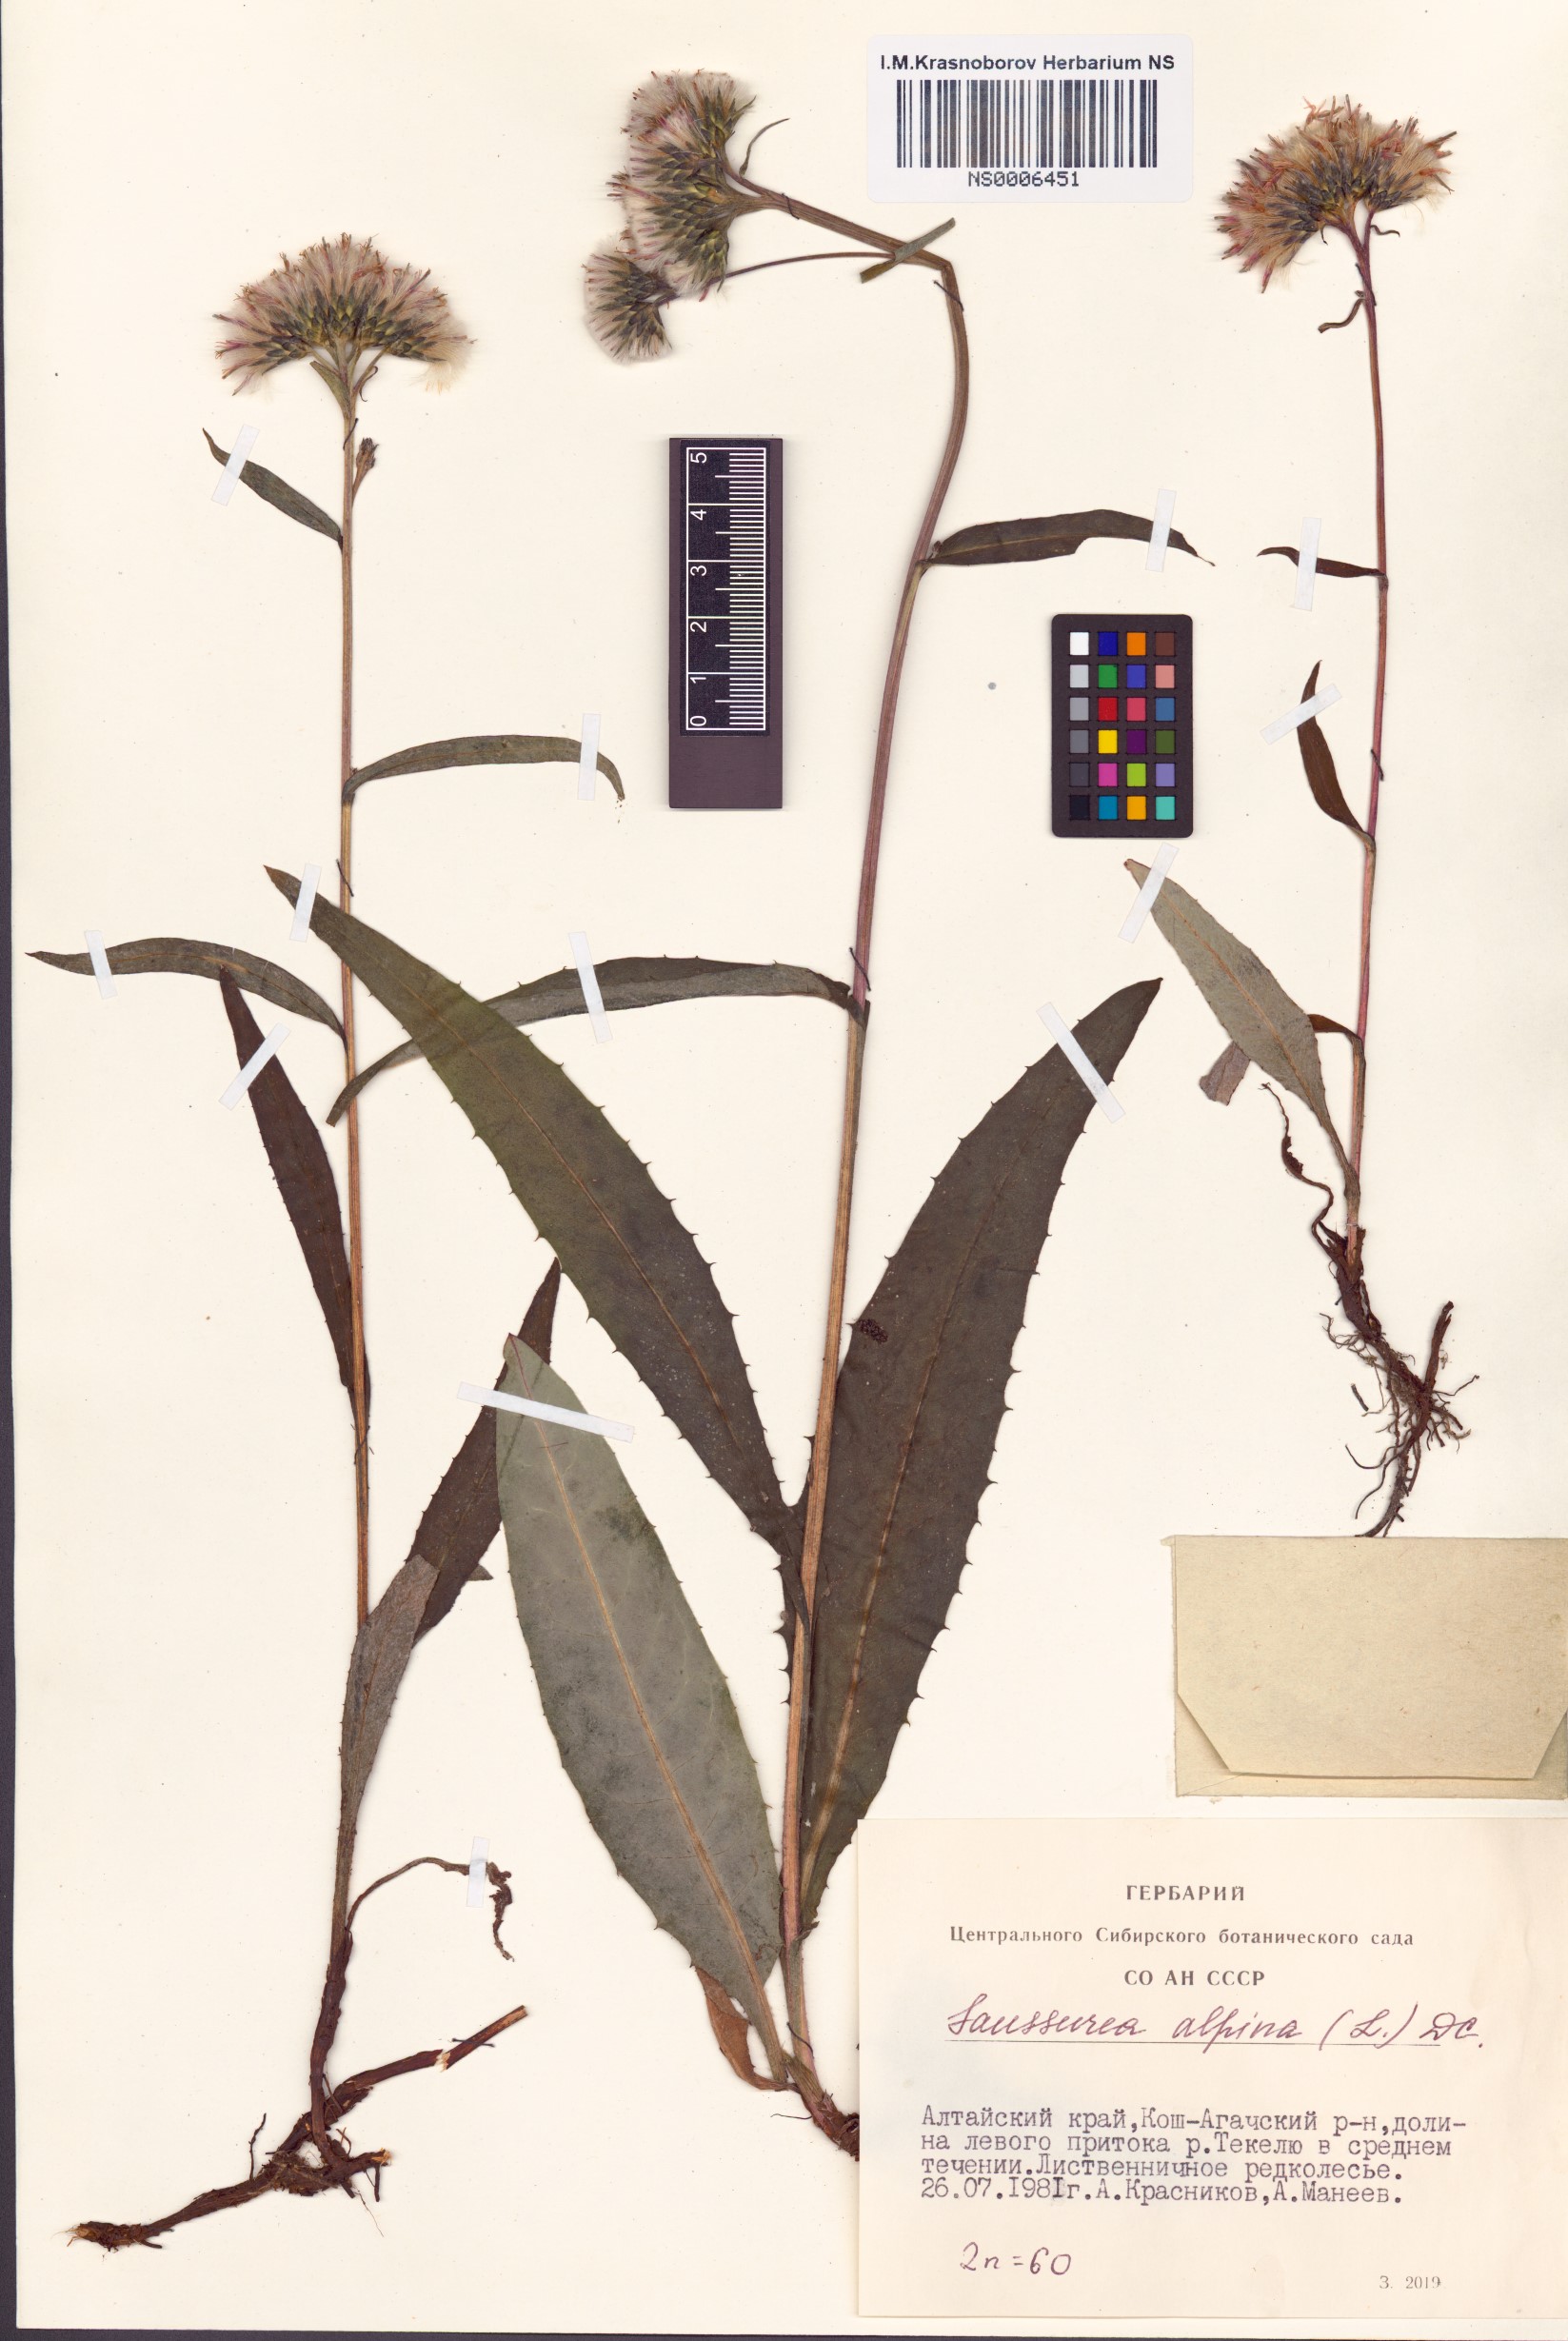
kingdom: Plantae
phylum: Tracheophyta
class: Magnoliopsida
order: Asterales
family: Asteraceae
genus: Saussurea
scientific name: Saussurea alpina
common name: Alpine saw-wort
